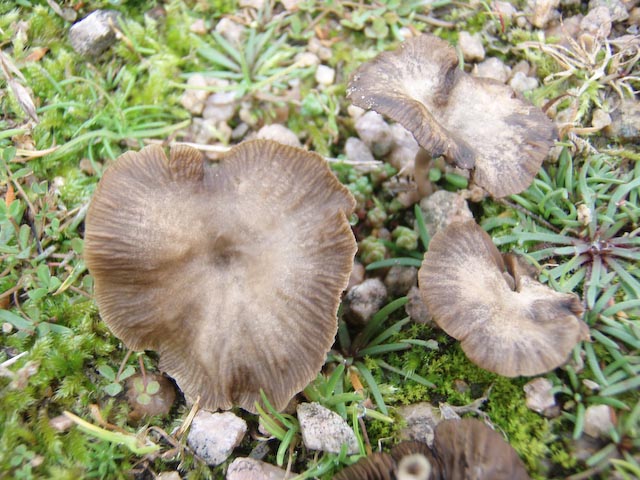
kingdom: Fungi
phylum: Basidiomycota
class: Agaricomycetes
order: Agaricales
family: Hygrophoraceae
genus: Arrhenia
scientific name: Arrhenia rustica
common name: dyster fontænehat
